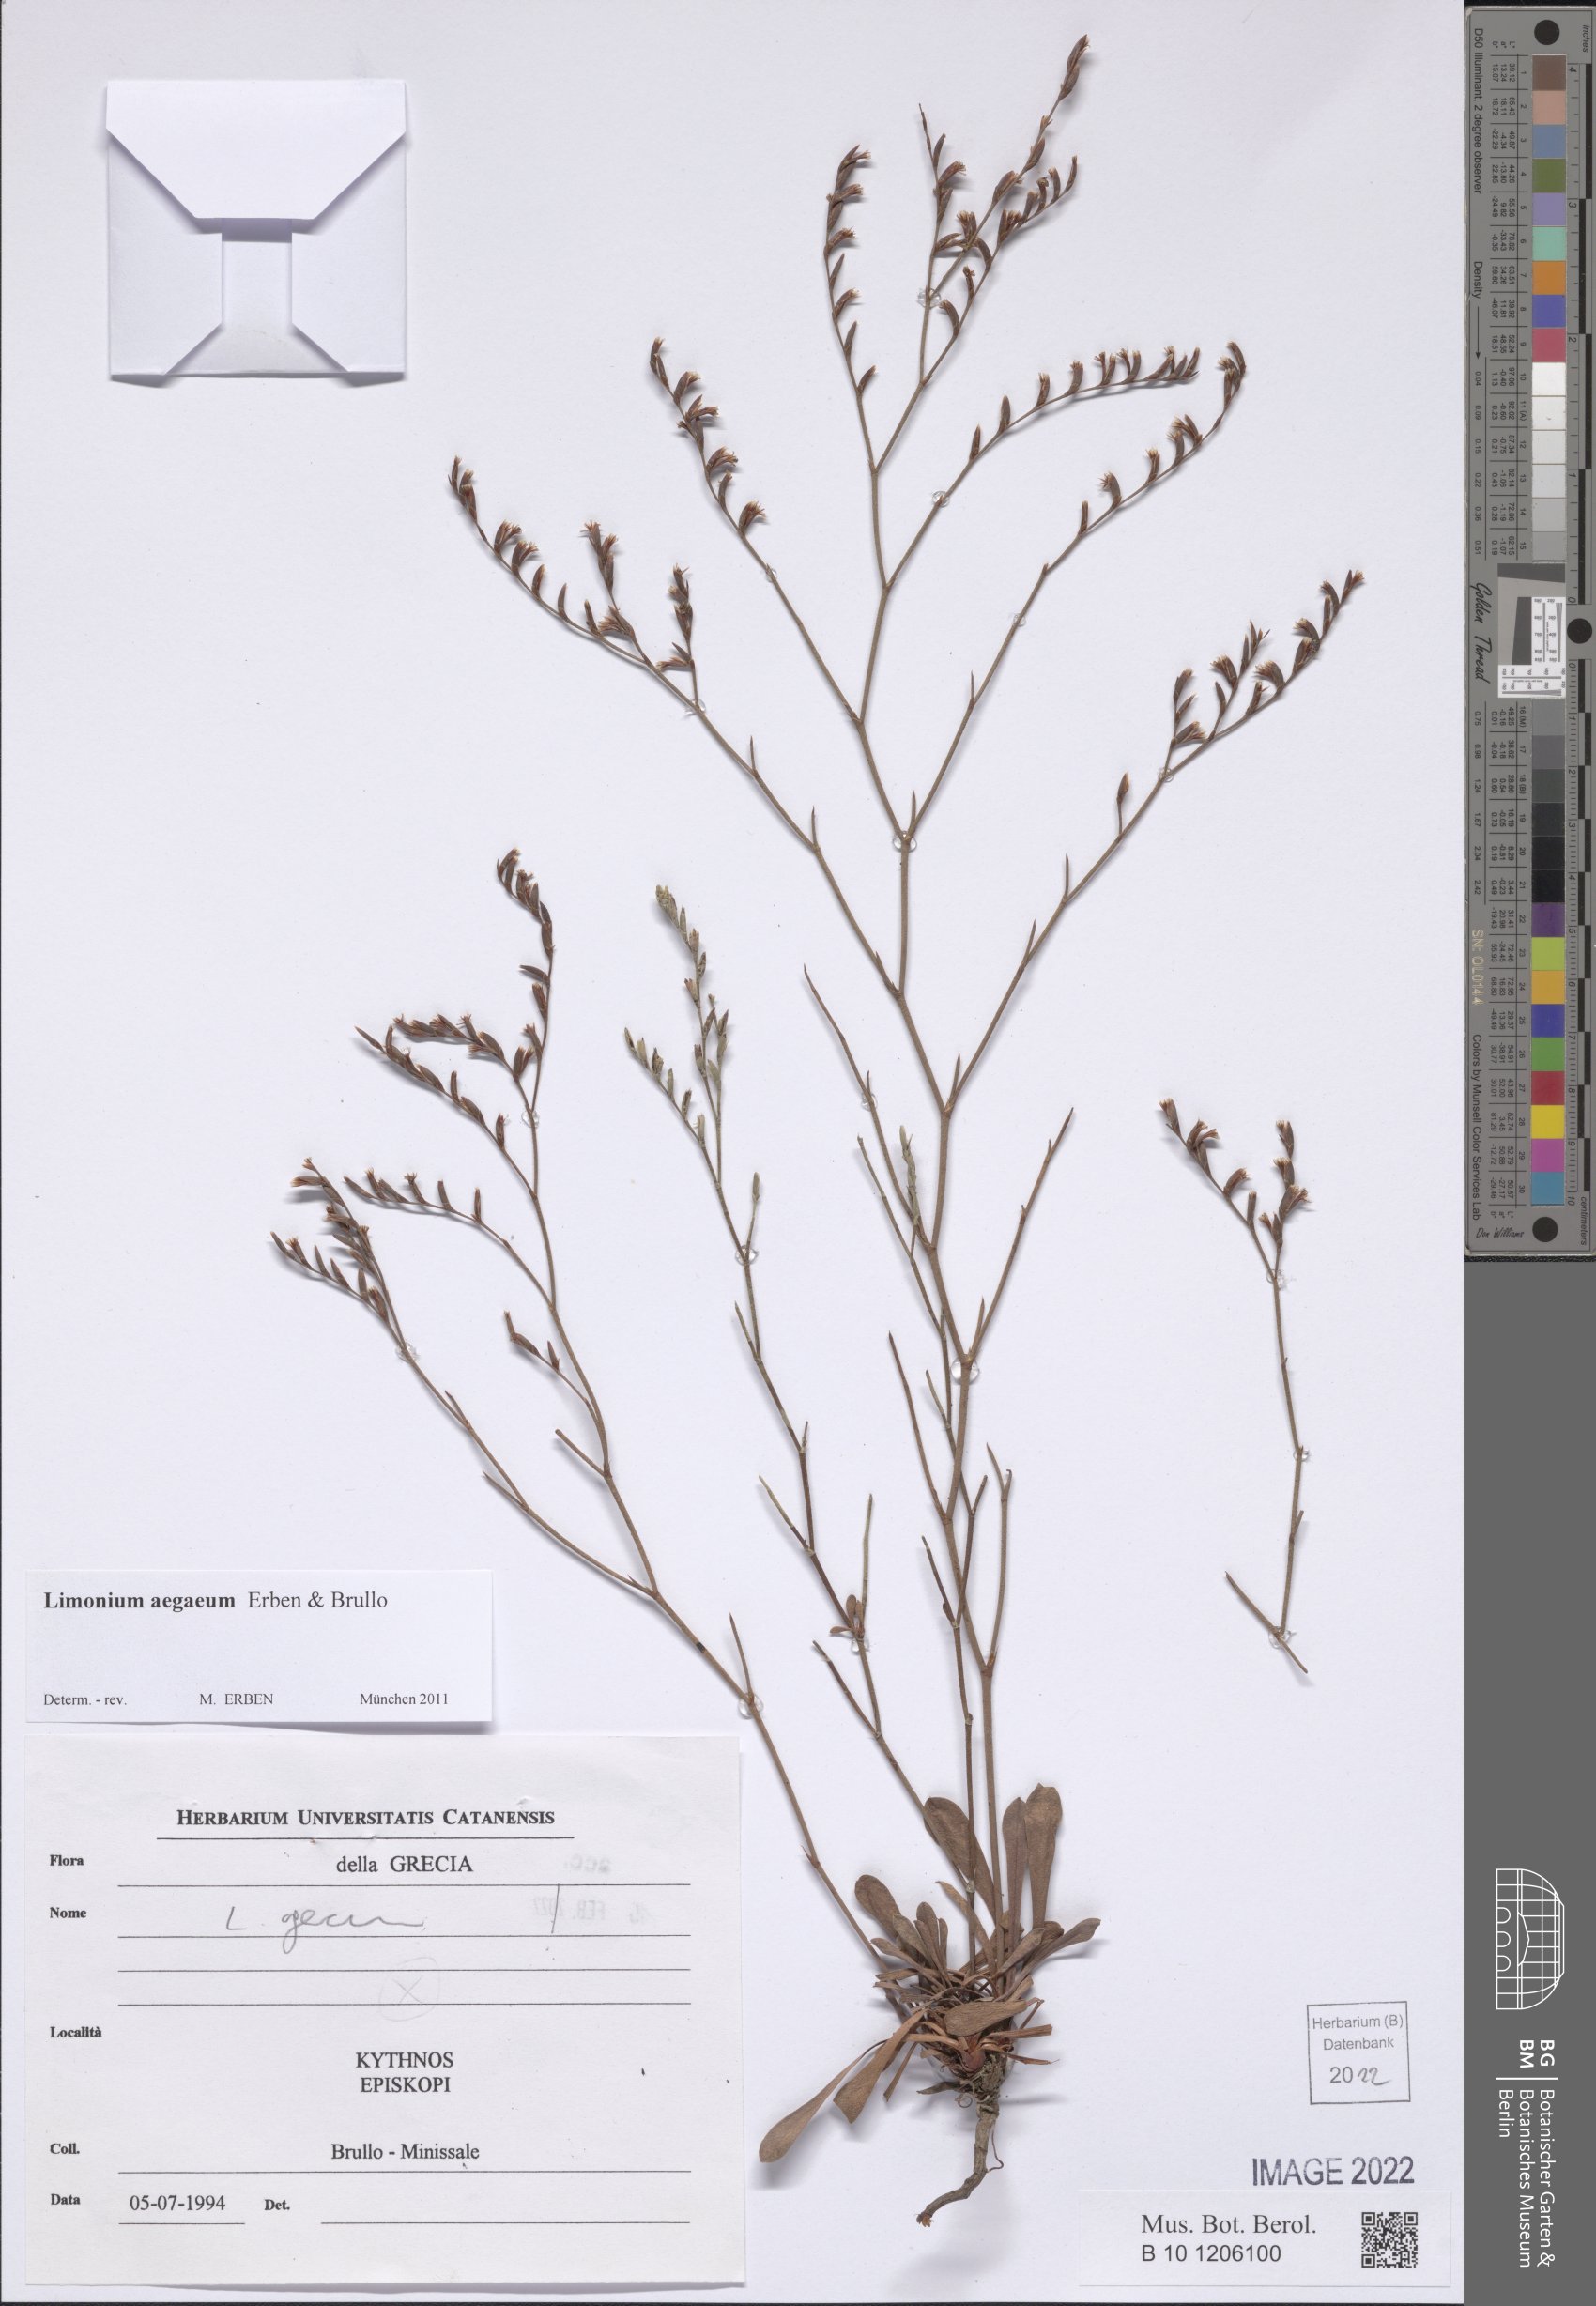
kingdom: Plantae
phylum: Tracheophyta
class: Magnoliopsida
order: Caryophyllales
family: Plumbaginaceae
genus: Limonium
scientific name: Limonium aegaeum
